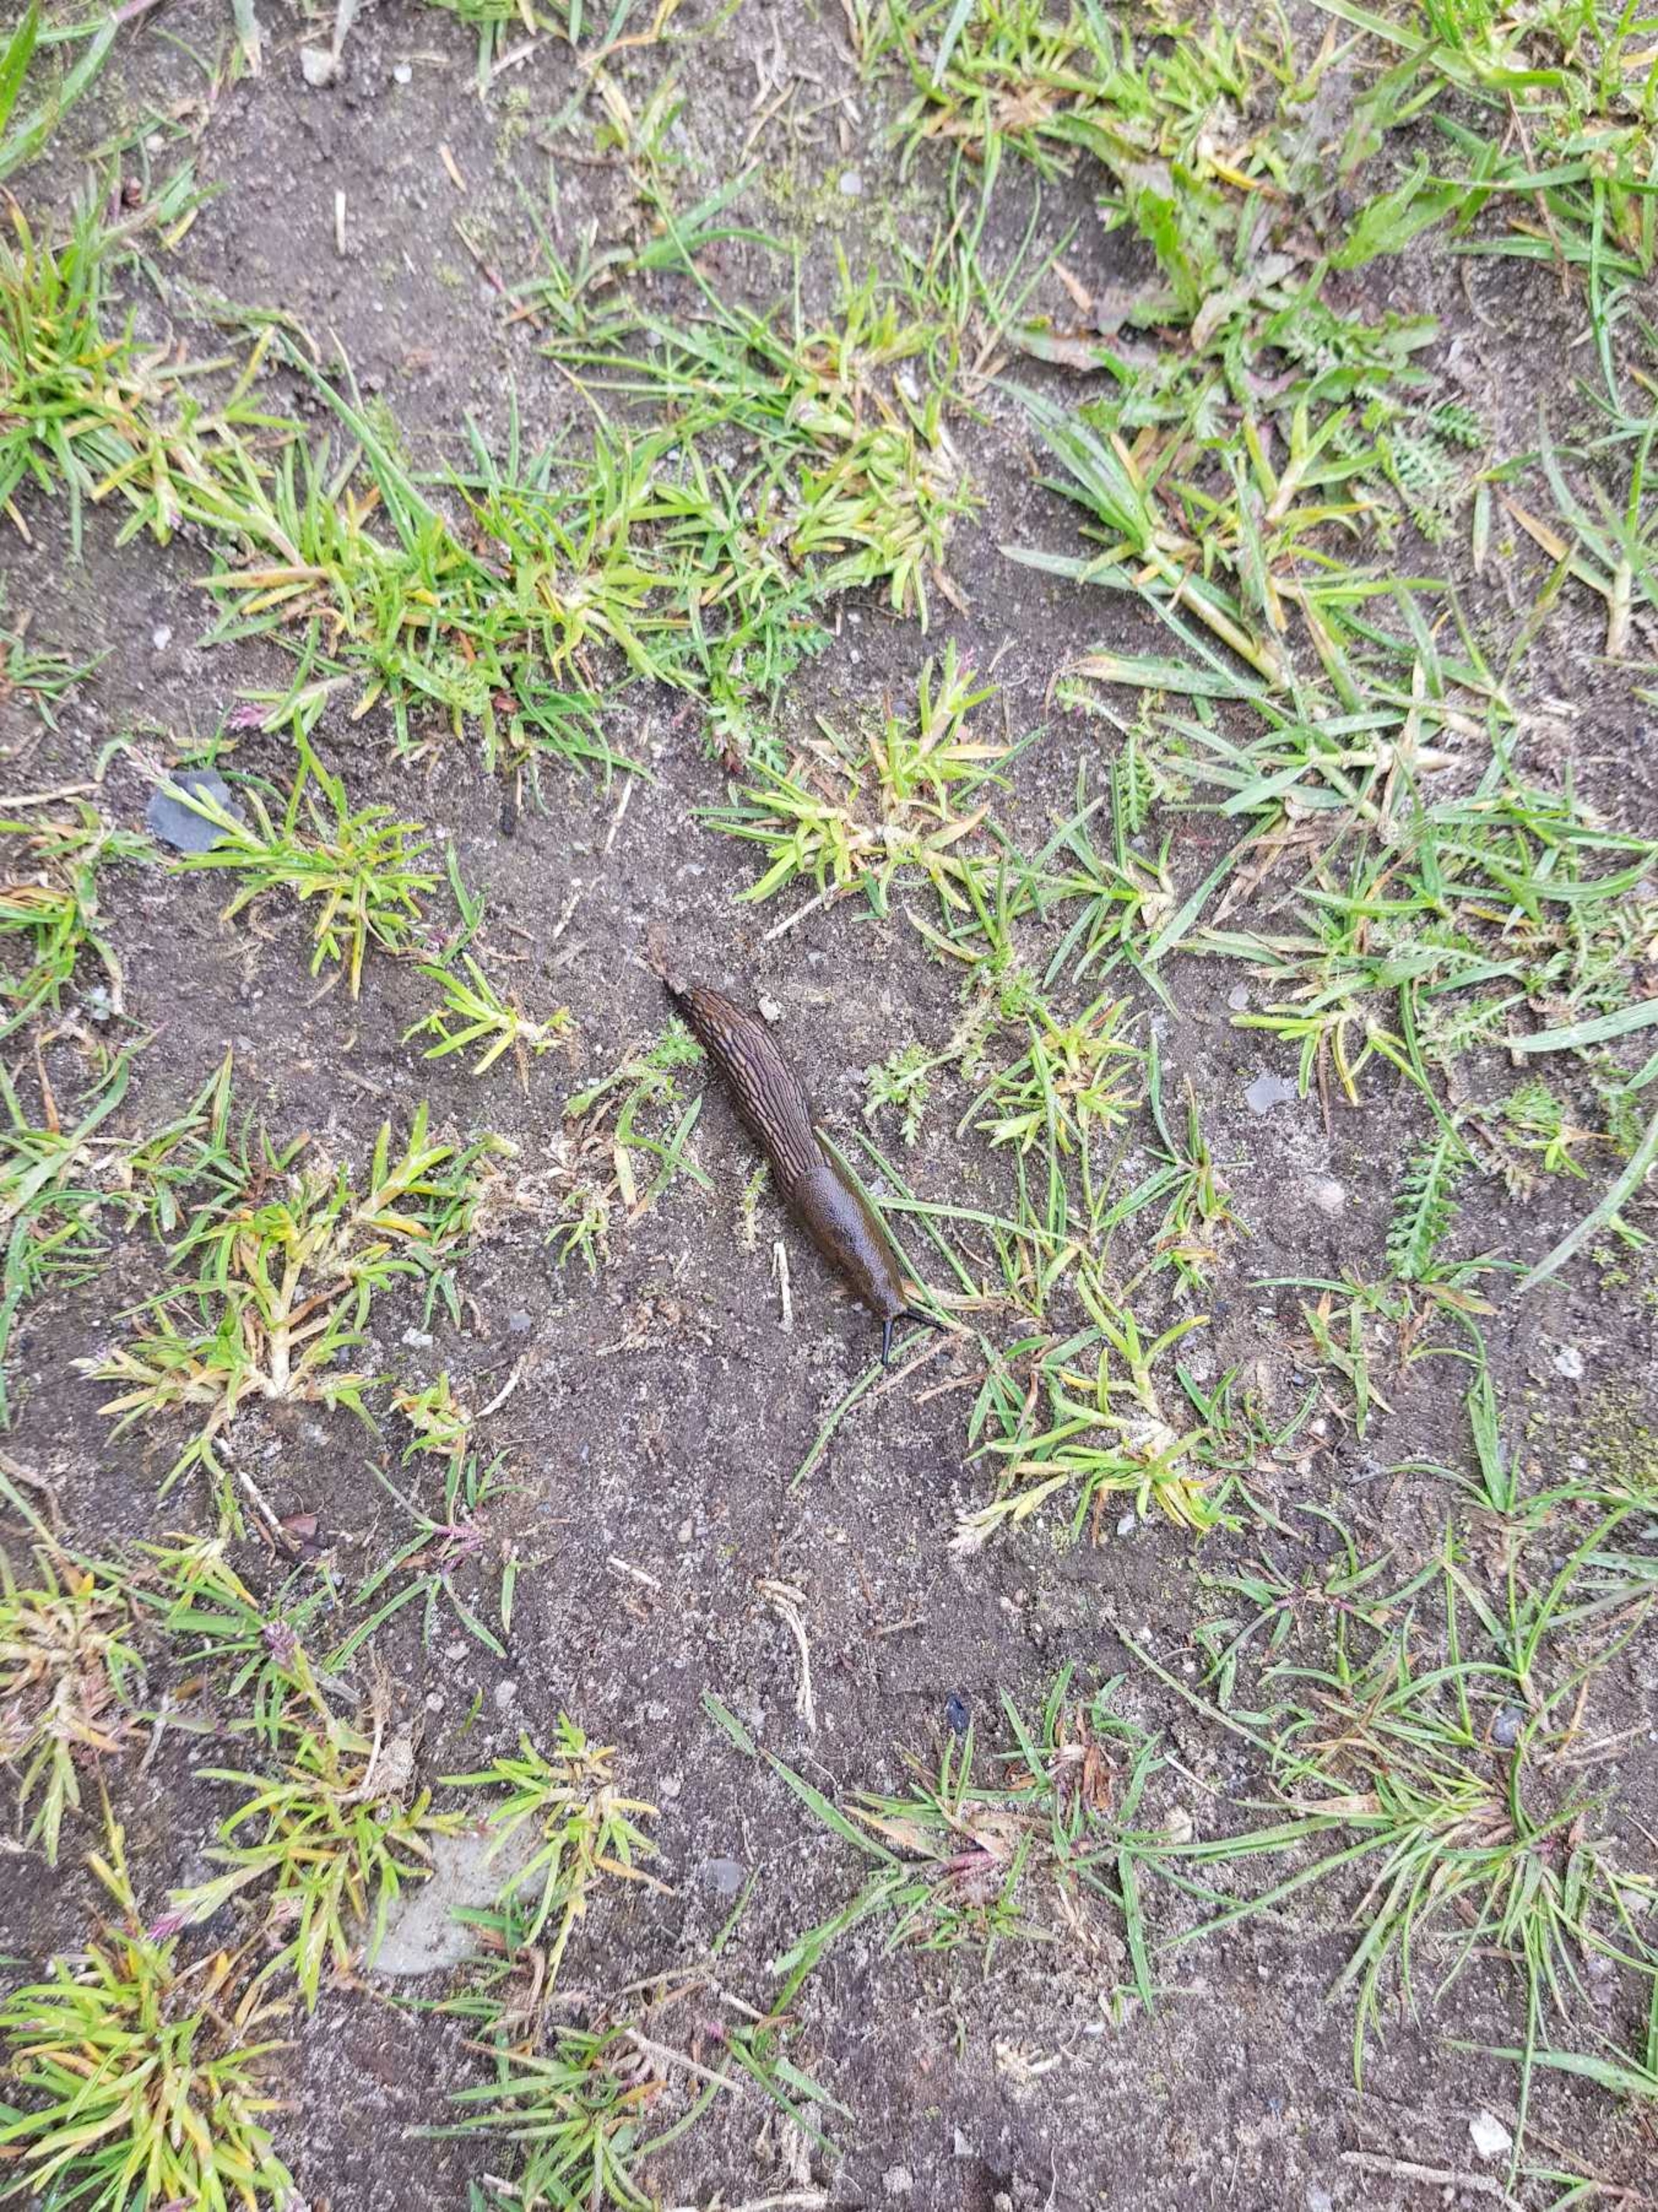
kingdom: Animalia
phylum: Mollusca
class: Gastropoda
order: Stylommatophora
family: Arionidae
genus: Arion
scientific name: Arion vulgaris
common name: Iberisk skovsnegl
